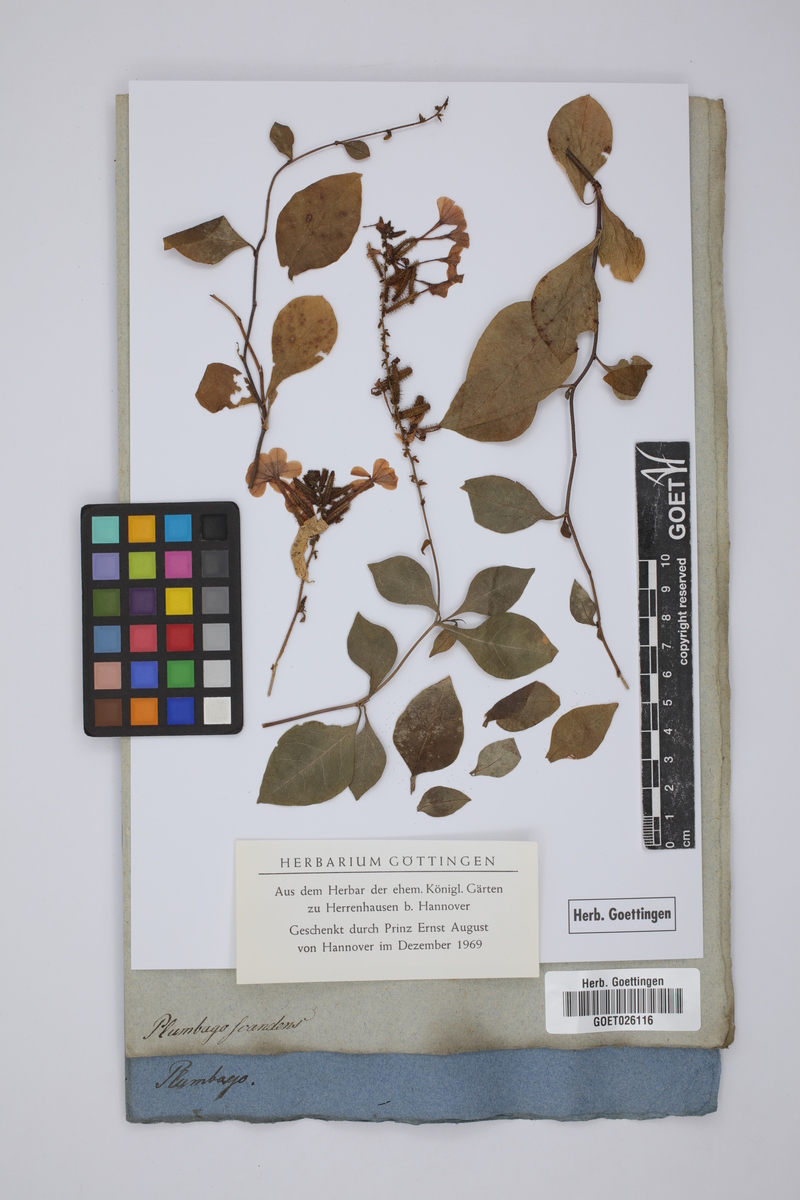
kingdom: Plantae
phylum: Tracheophyta
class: Magnoliopsida
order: Caryophyllales
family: Plumbaginaceae
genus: Plumbago
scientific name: Plumbago zeylanica
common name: Doctorbush
